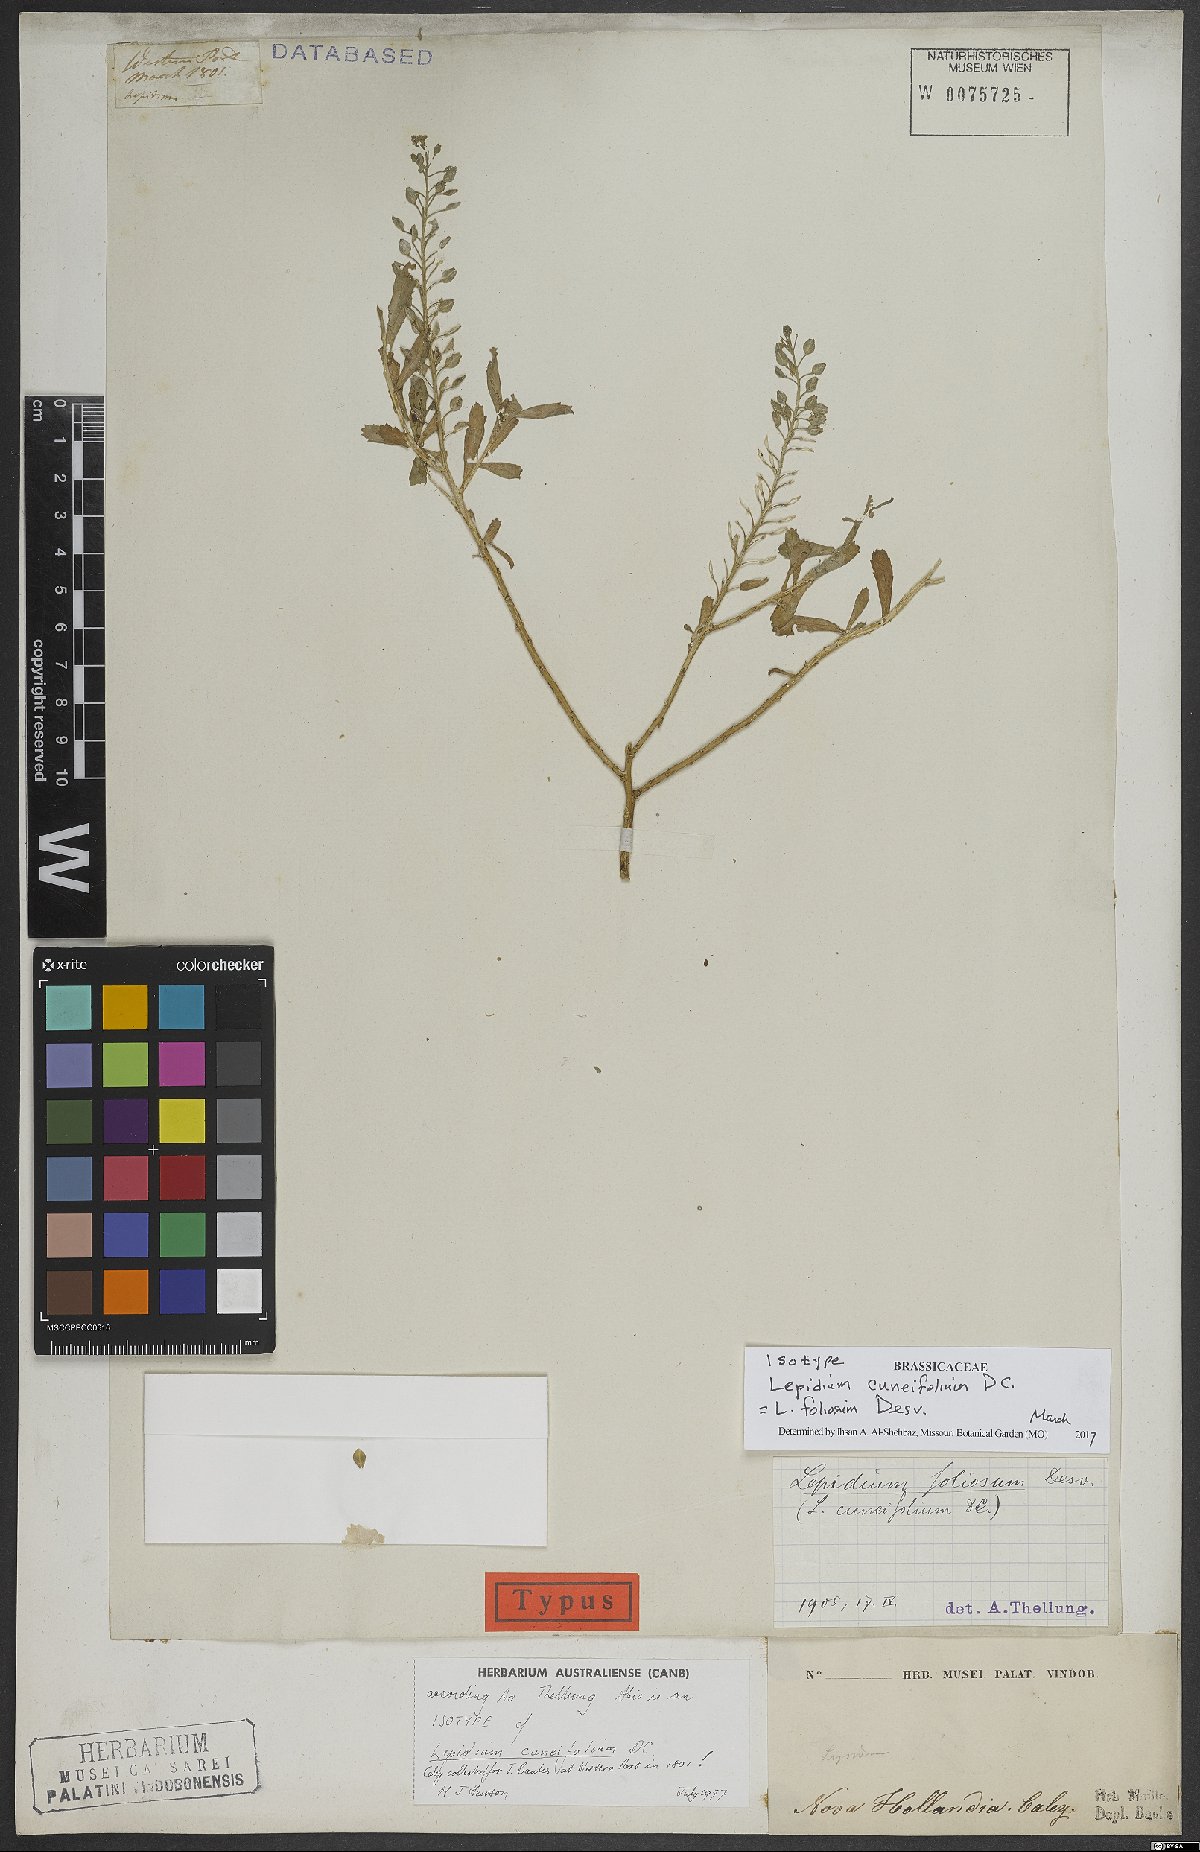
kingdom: Plantae
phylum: Tracheophyta
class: Magnoliopsida
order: Brassicales
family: Brassicaceae
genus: Lepidium
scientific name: Lepidium foliosum
